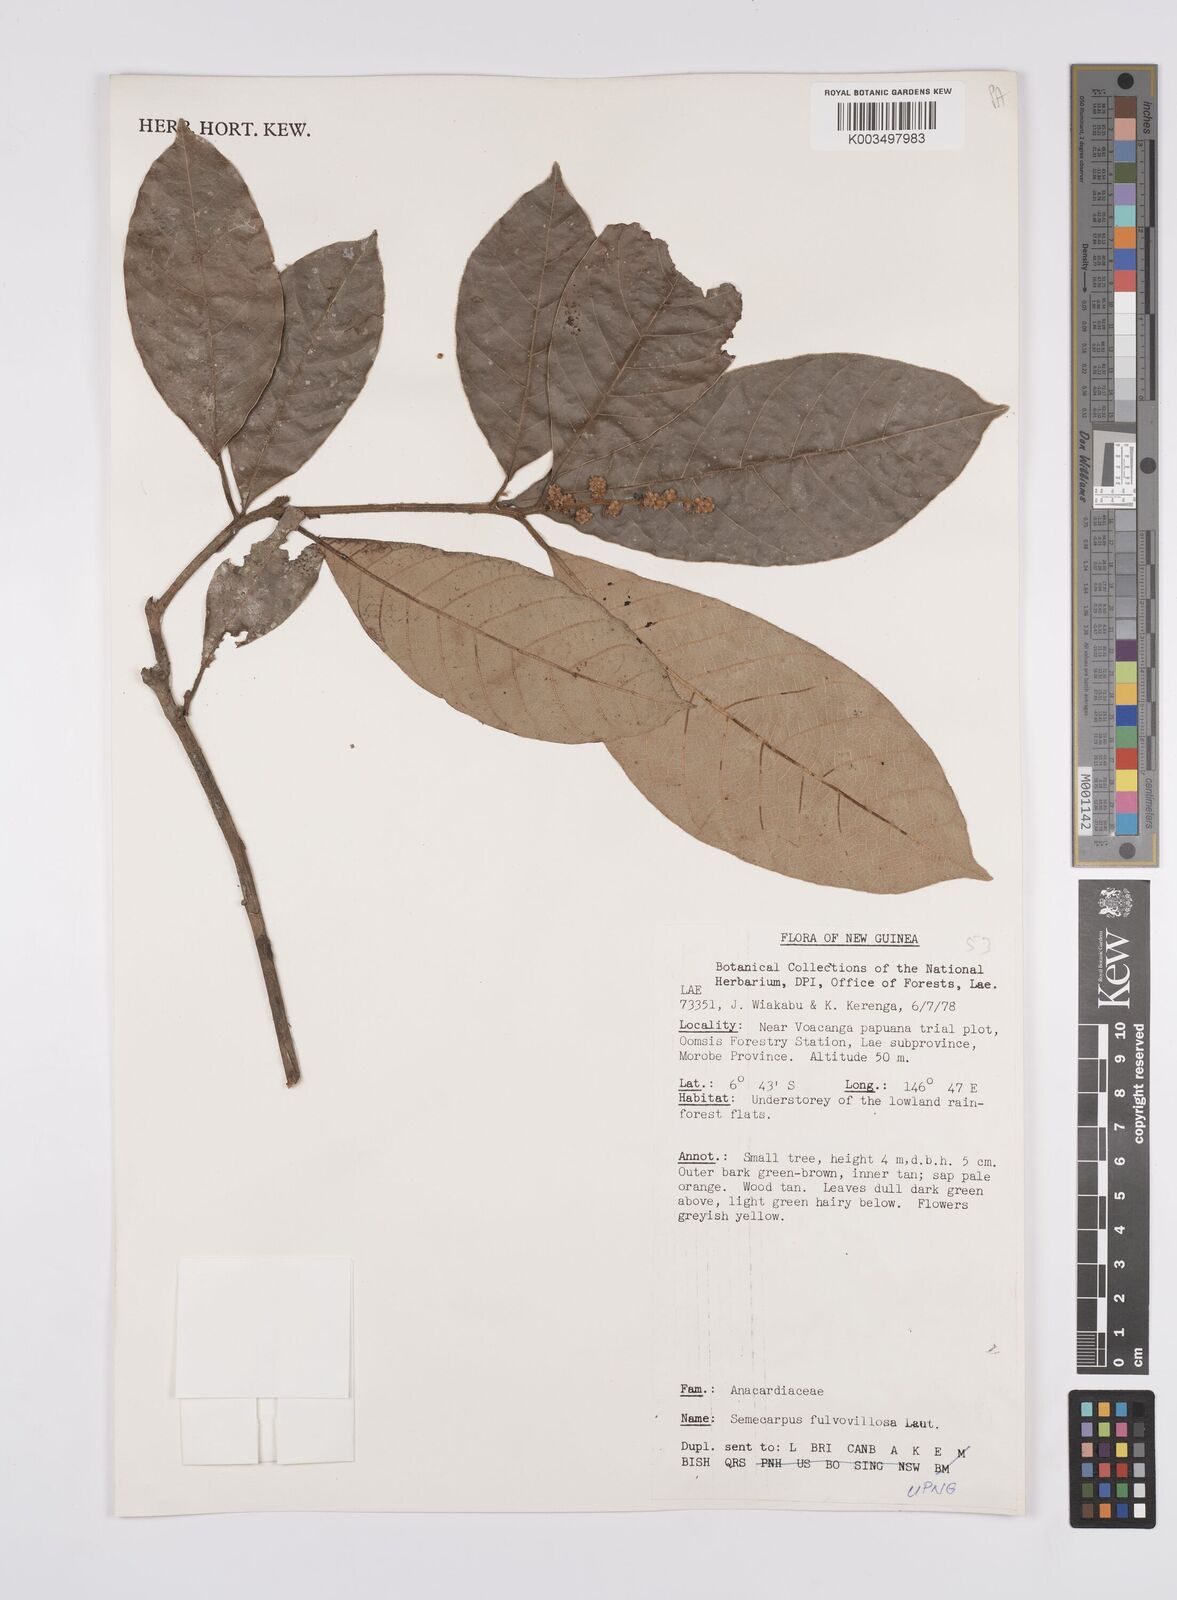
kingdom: Plantae
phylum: Tracheophyta
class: Magnoliopsida
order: Sapindales
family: Anacardiaceae
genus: Semecarpus
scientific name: Semecarpus aruensis
